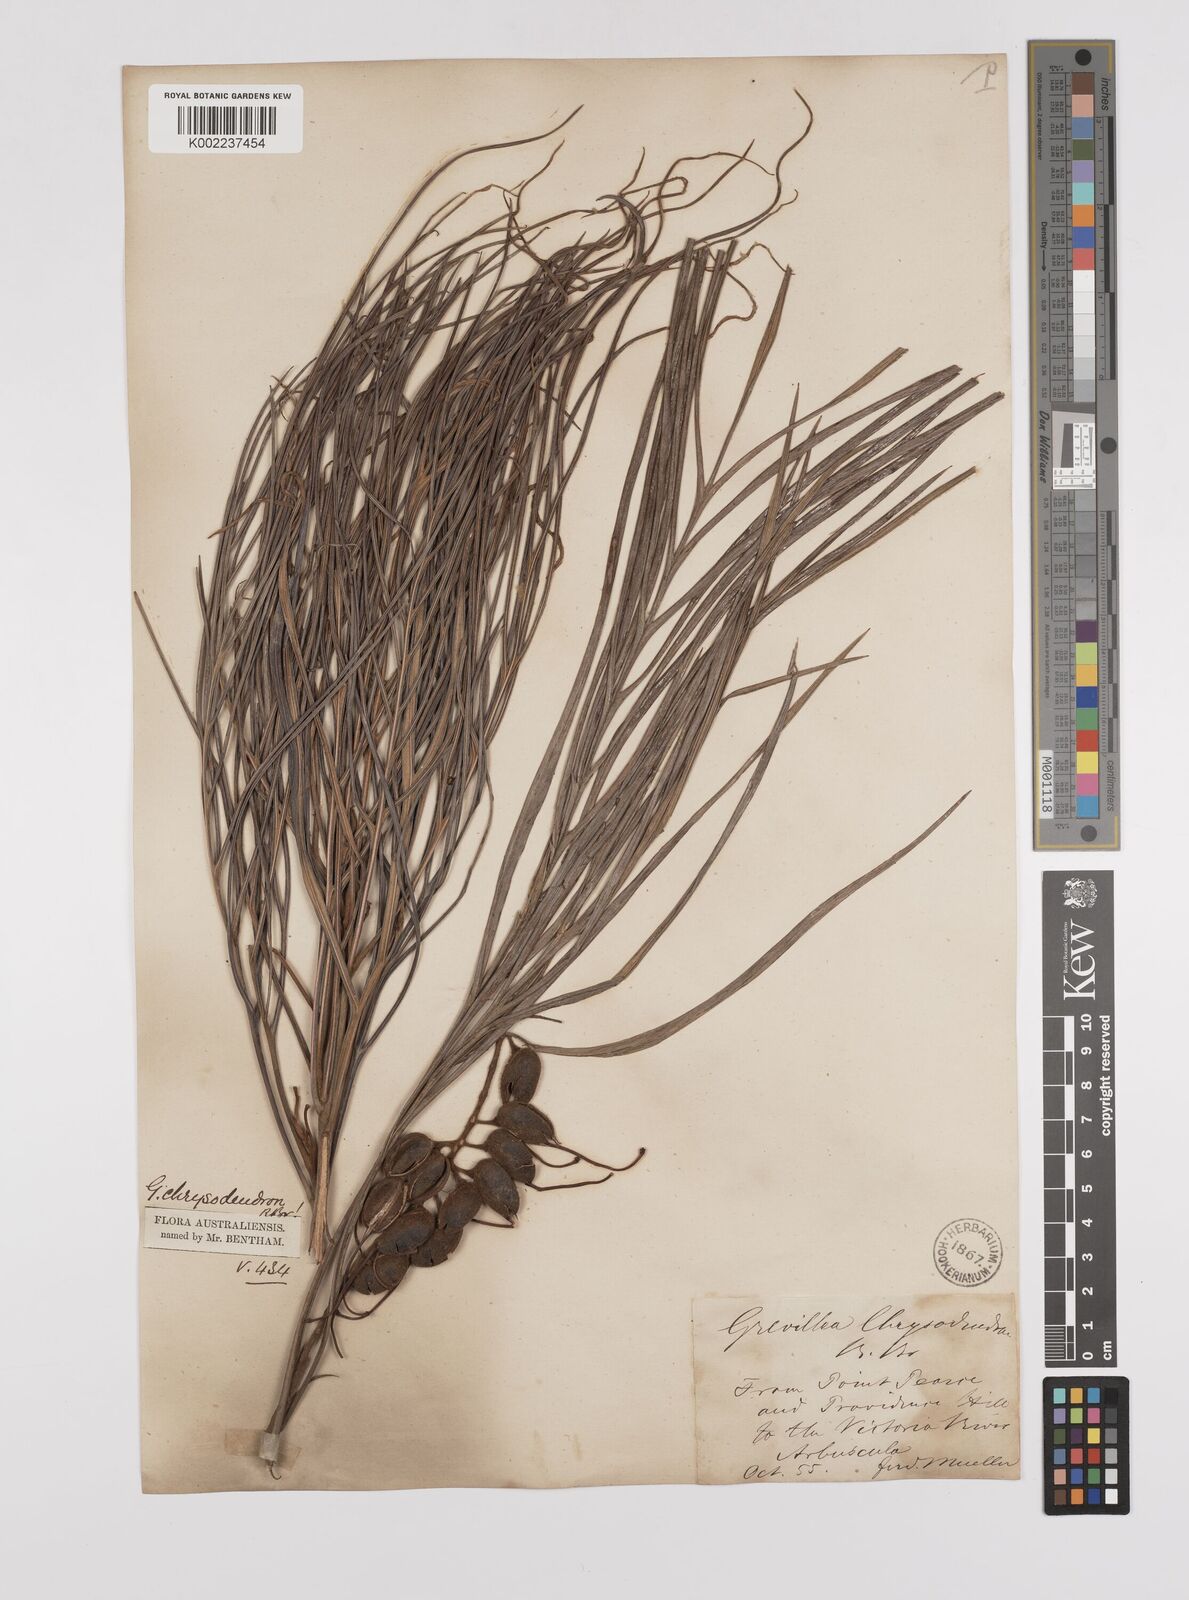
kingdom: Plantae
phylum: Tracheophyta
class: Magnoliopsida
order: Proteales
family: Proteaceae
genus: Grevillea
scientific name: Grevillea pteridifolia
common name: Golden grevillea
